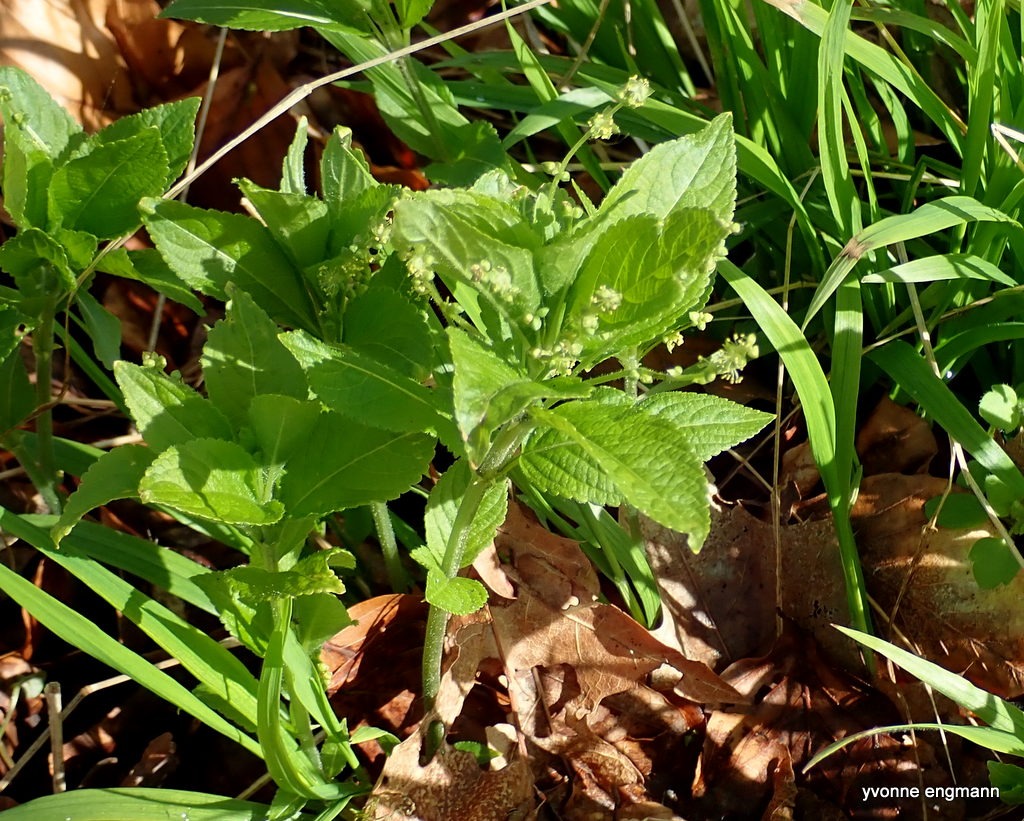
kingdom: Plantae
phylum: Tracheophyta
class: Magnoliopsida
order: Malpighiales
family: Euphorbiaceae
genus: Mercurialis
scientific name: Mercurialis perennis
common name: Almindelig bingelurt
